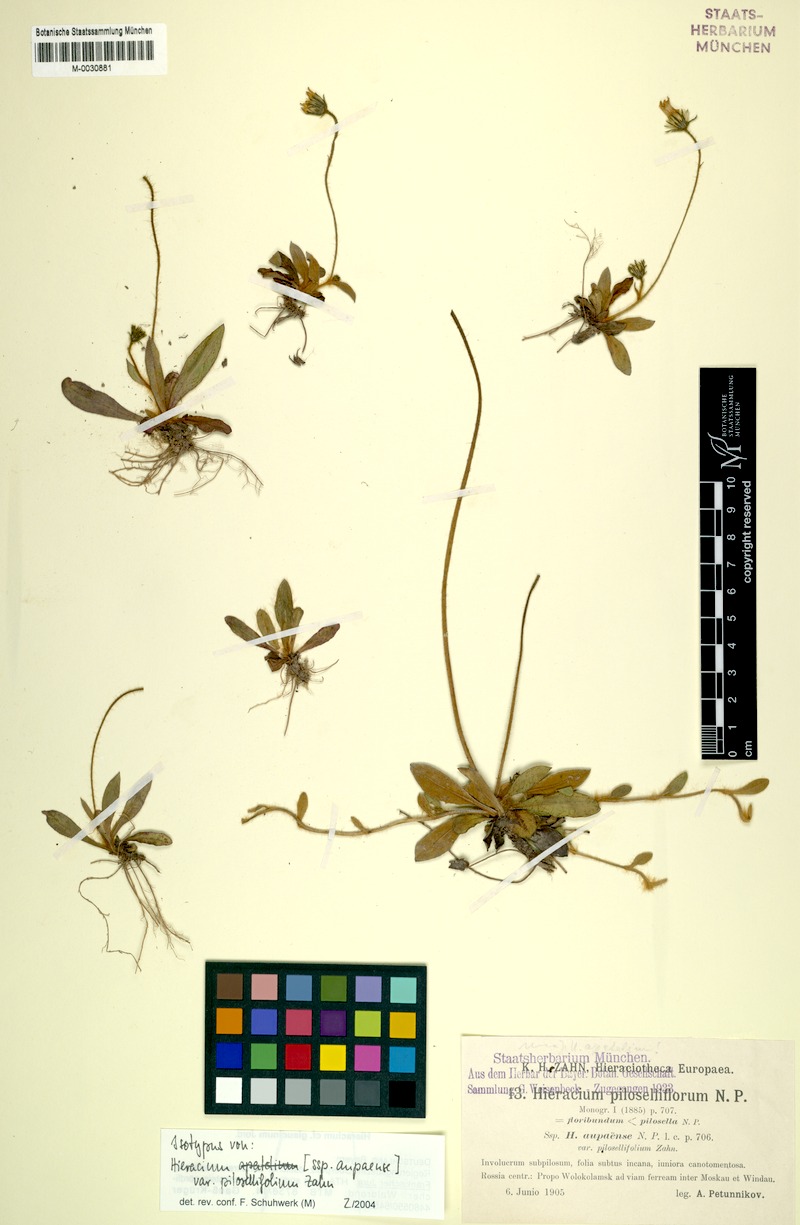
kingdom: Plantae
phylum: Tracheophyta
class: Magnoliopsida
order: Asterales
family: Asteraceae
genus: Pilosella
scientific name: Pilosella apatelia
